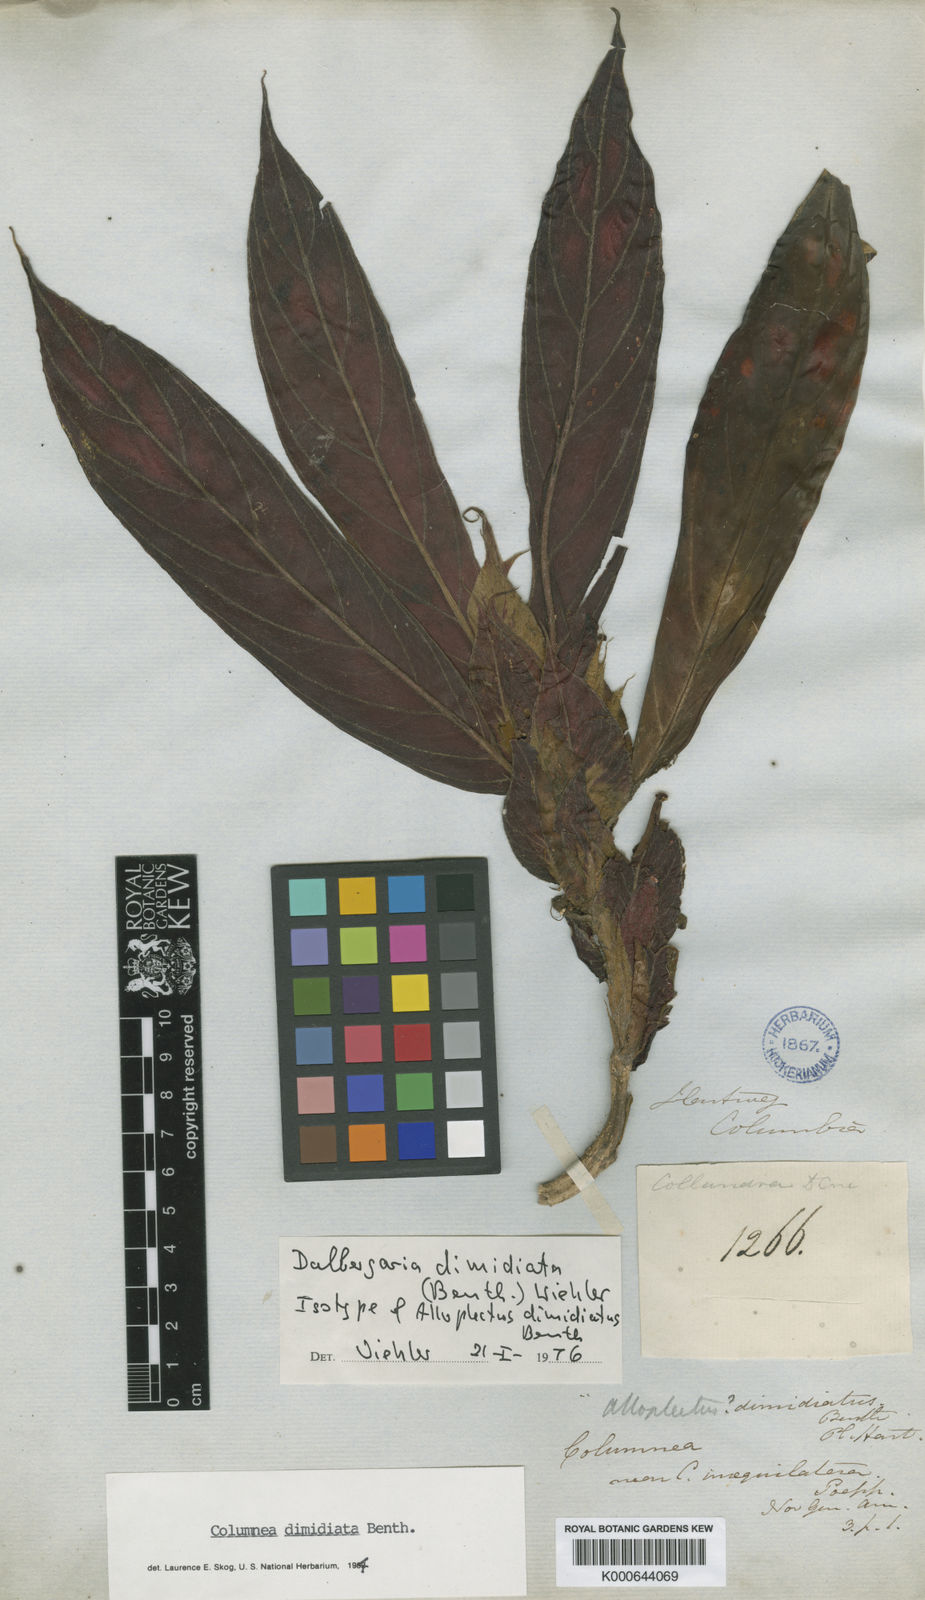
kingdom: Plantae
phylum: Tracheophyta
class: Magnoliopsida
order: Lamiales
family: Gesneriaceae
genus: Columnea
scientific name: Columnea dimidiata
